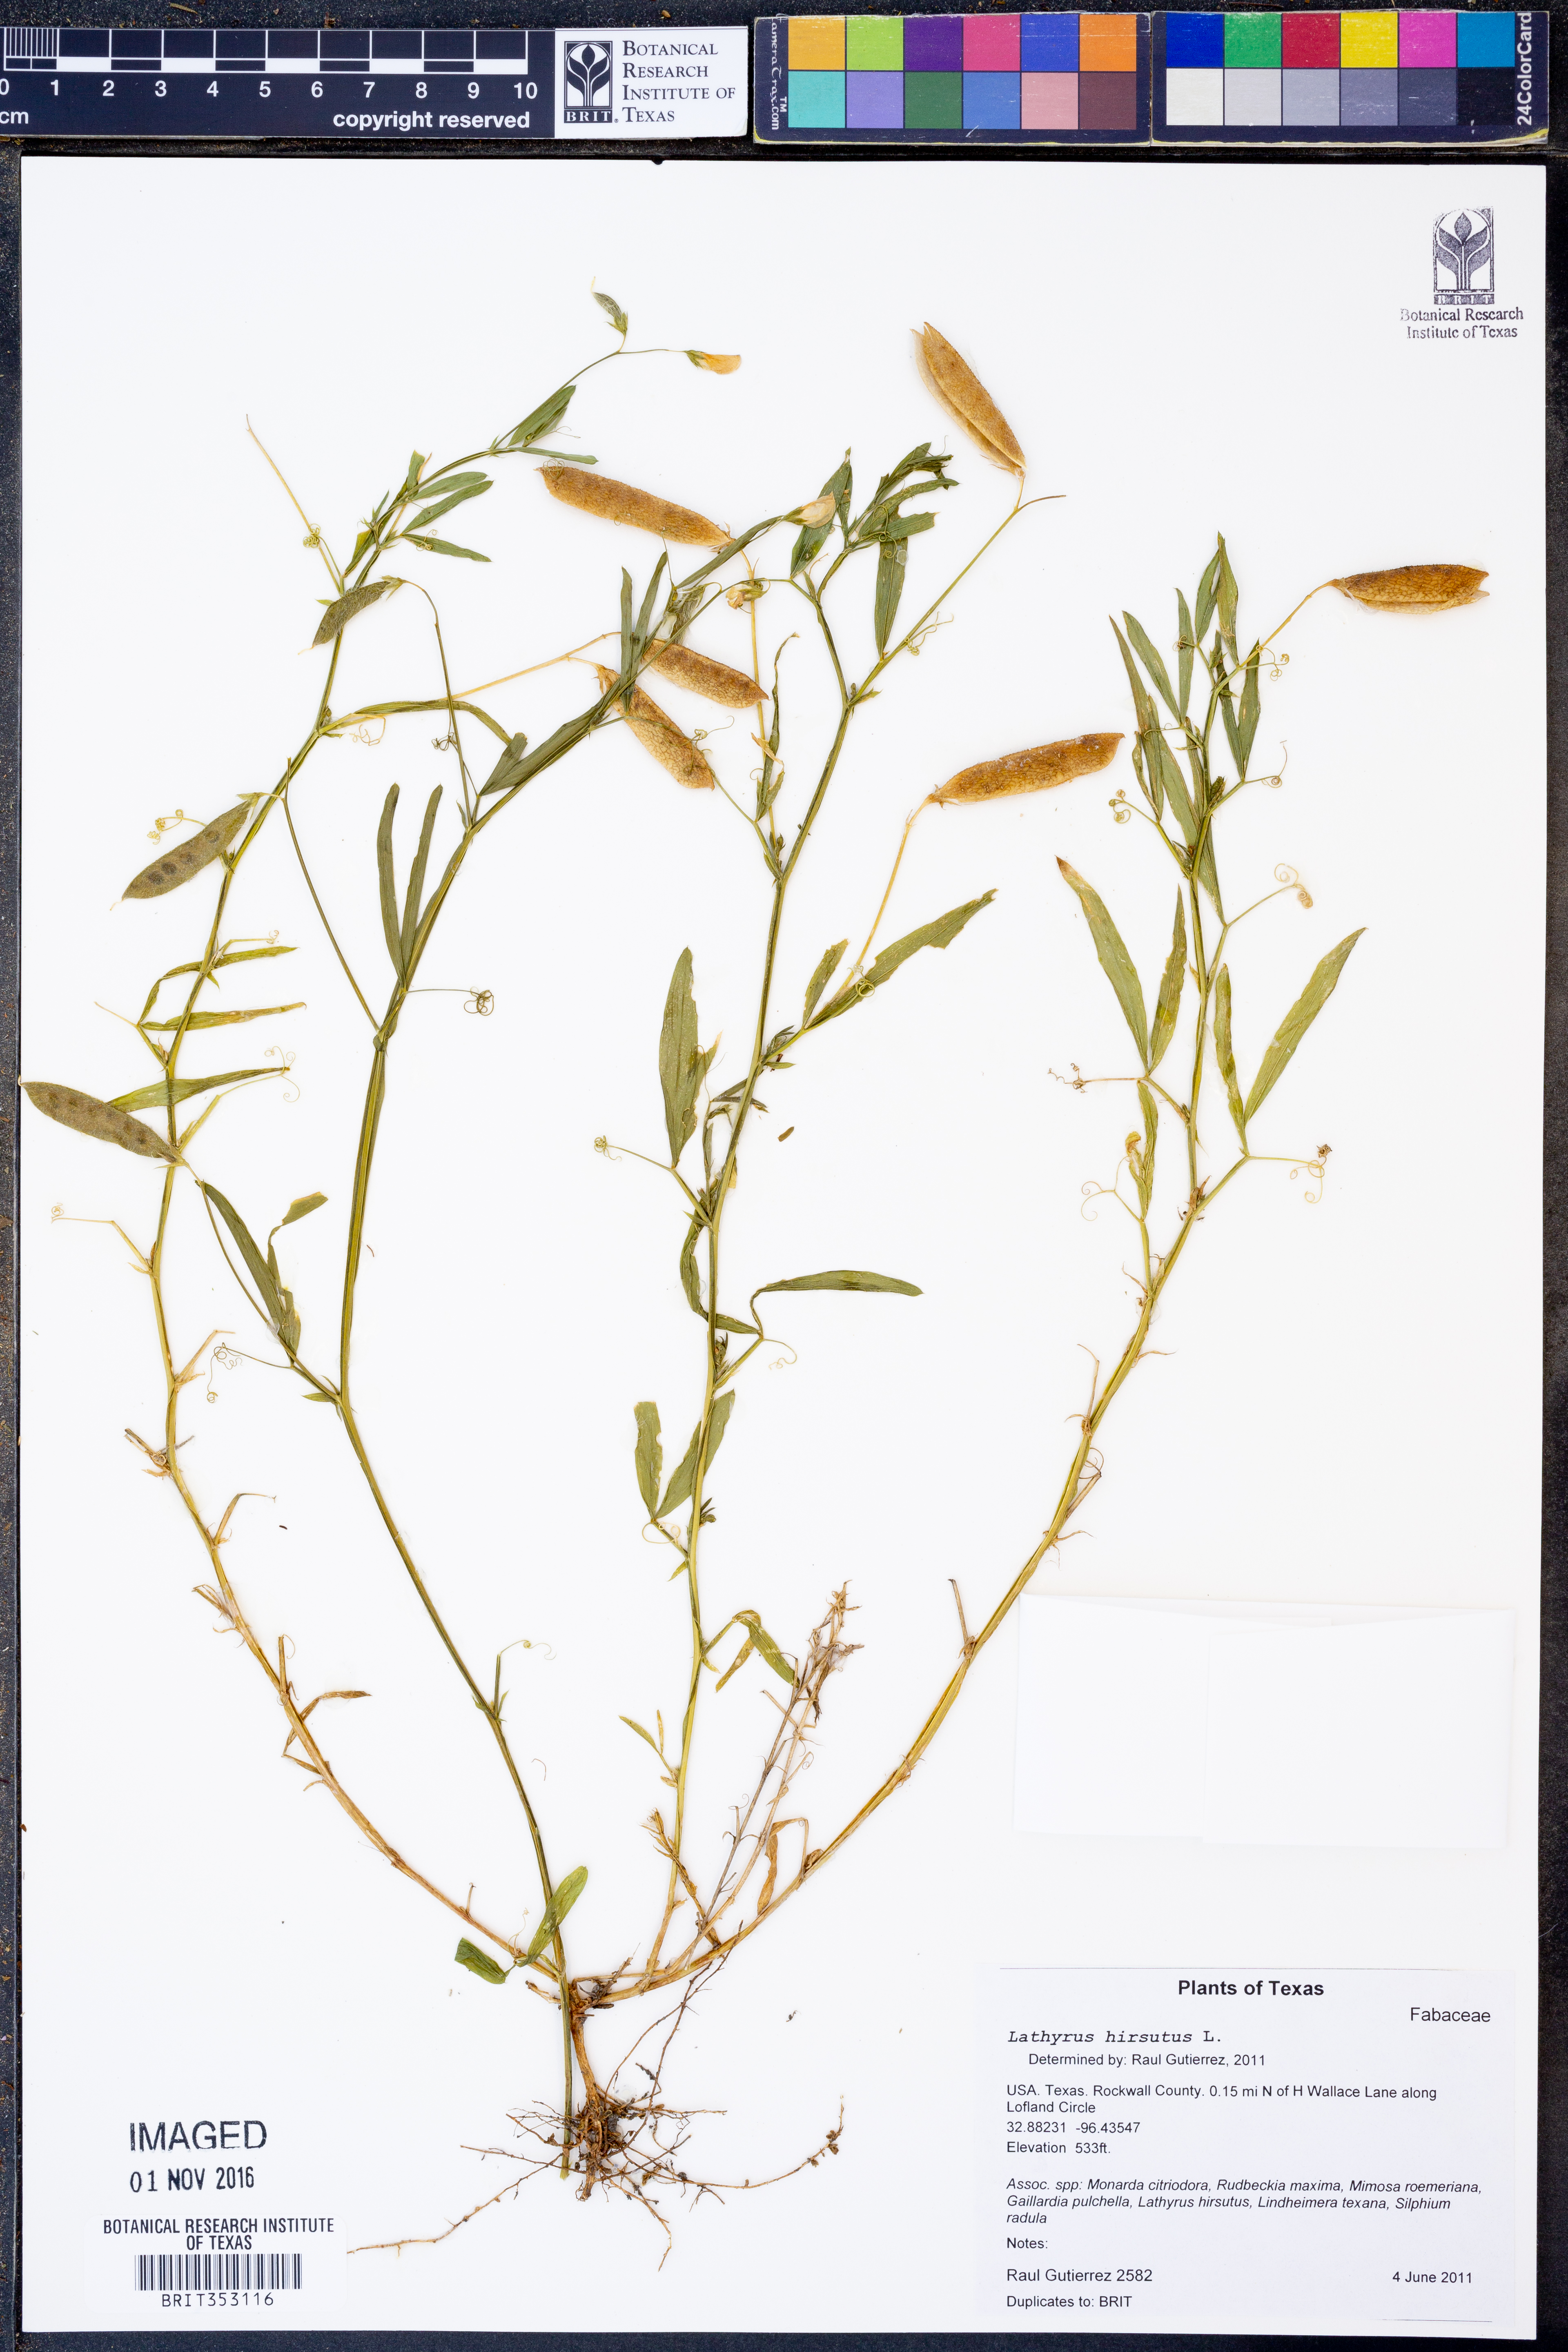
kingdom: Plantae
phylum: Tracheophyta
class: Magnoliopsida
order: Fabales
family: Fabaceae
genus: Lathyrus
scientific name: Lathyrus hirsutus
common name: Hairy vetchling
